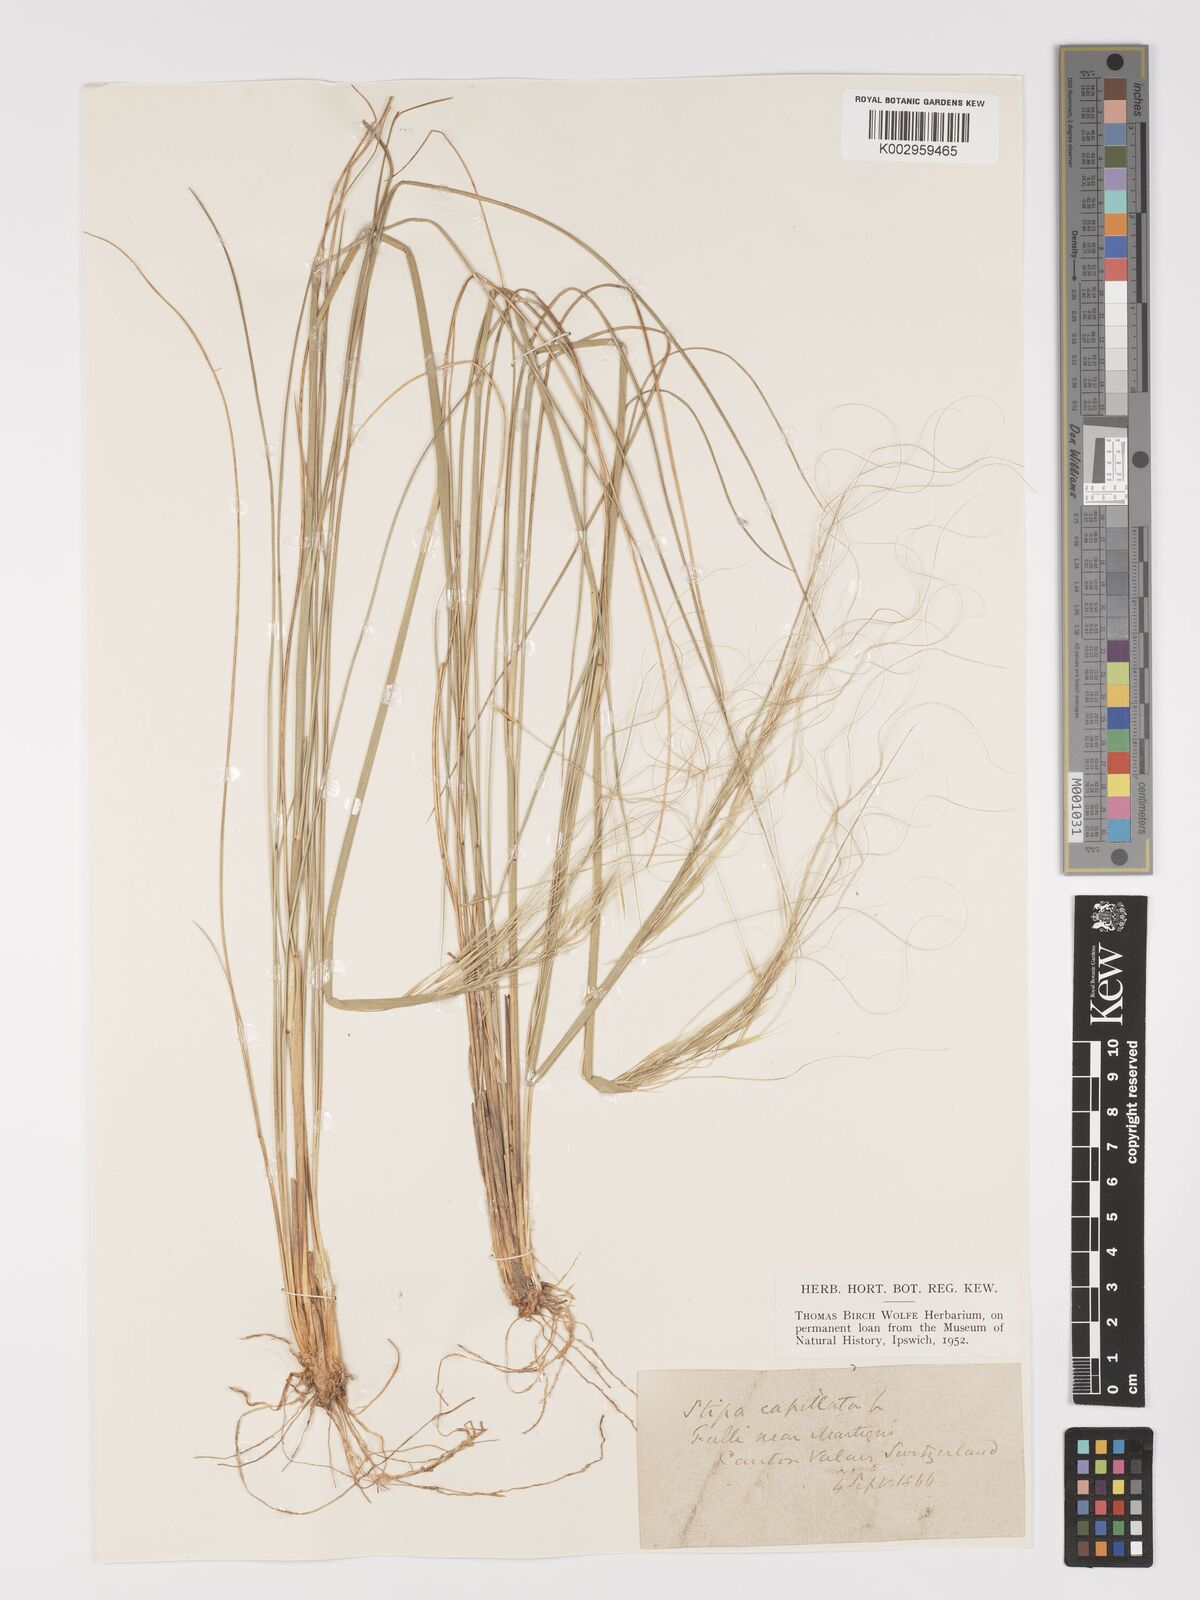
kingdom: Plantae
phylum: Tracheophyta
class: Liliopsida
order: Poales
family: Poaceae
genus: Stipa
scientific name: Stipa capillata
